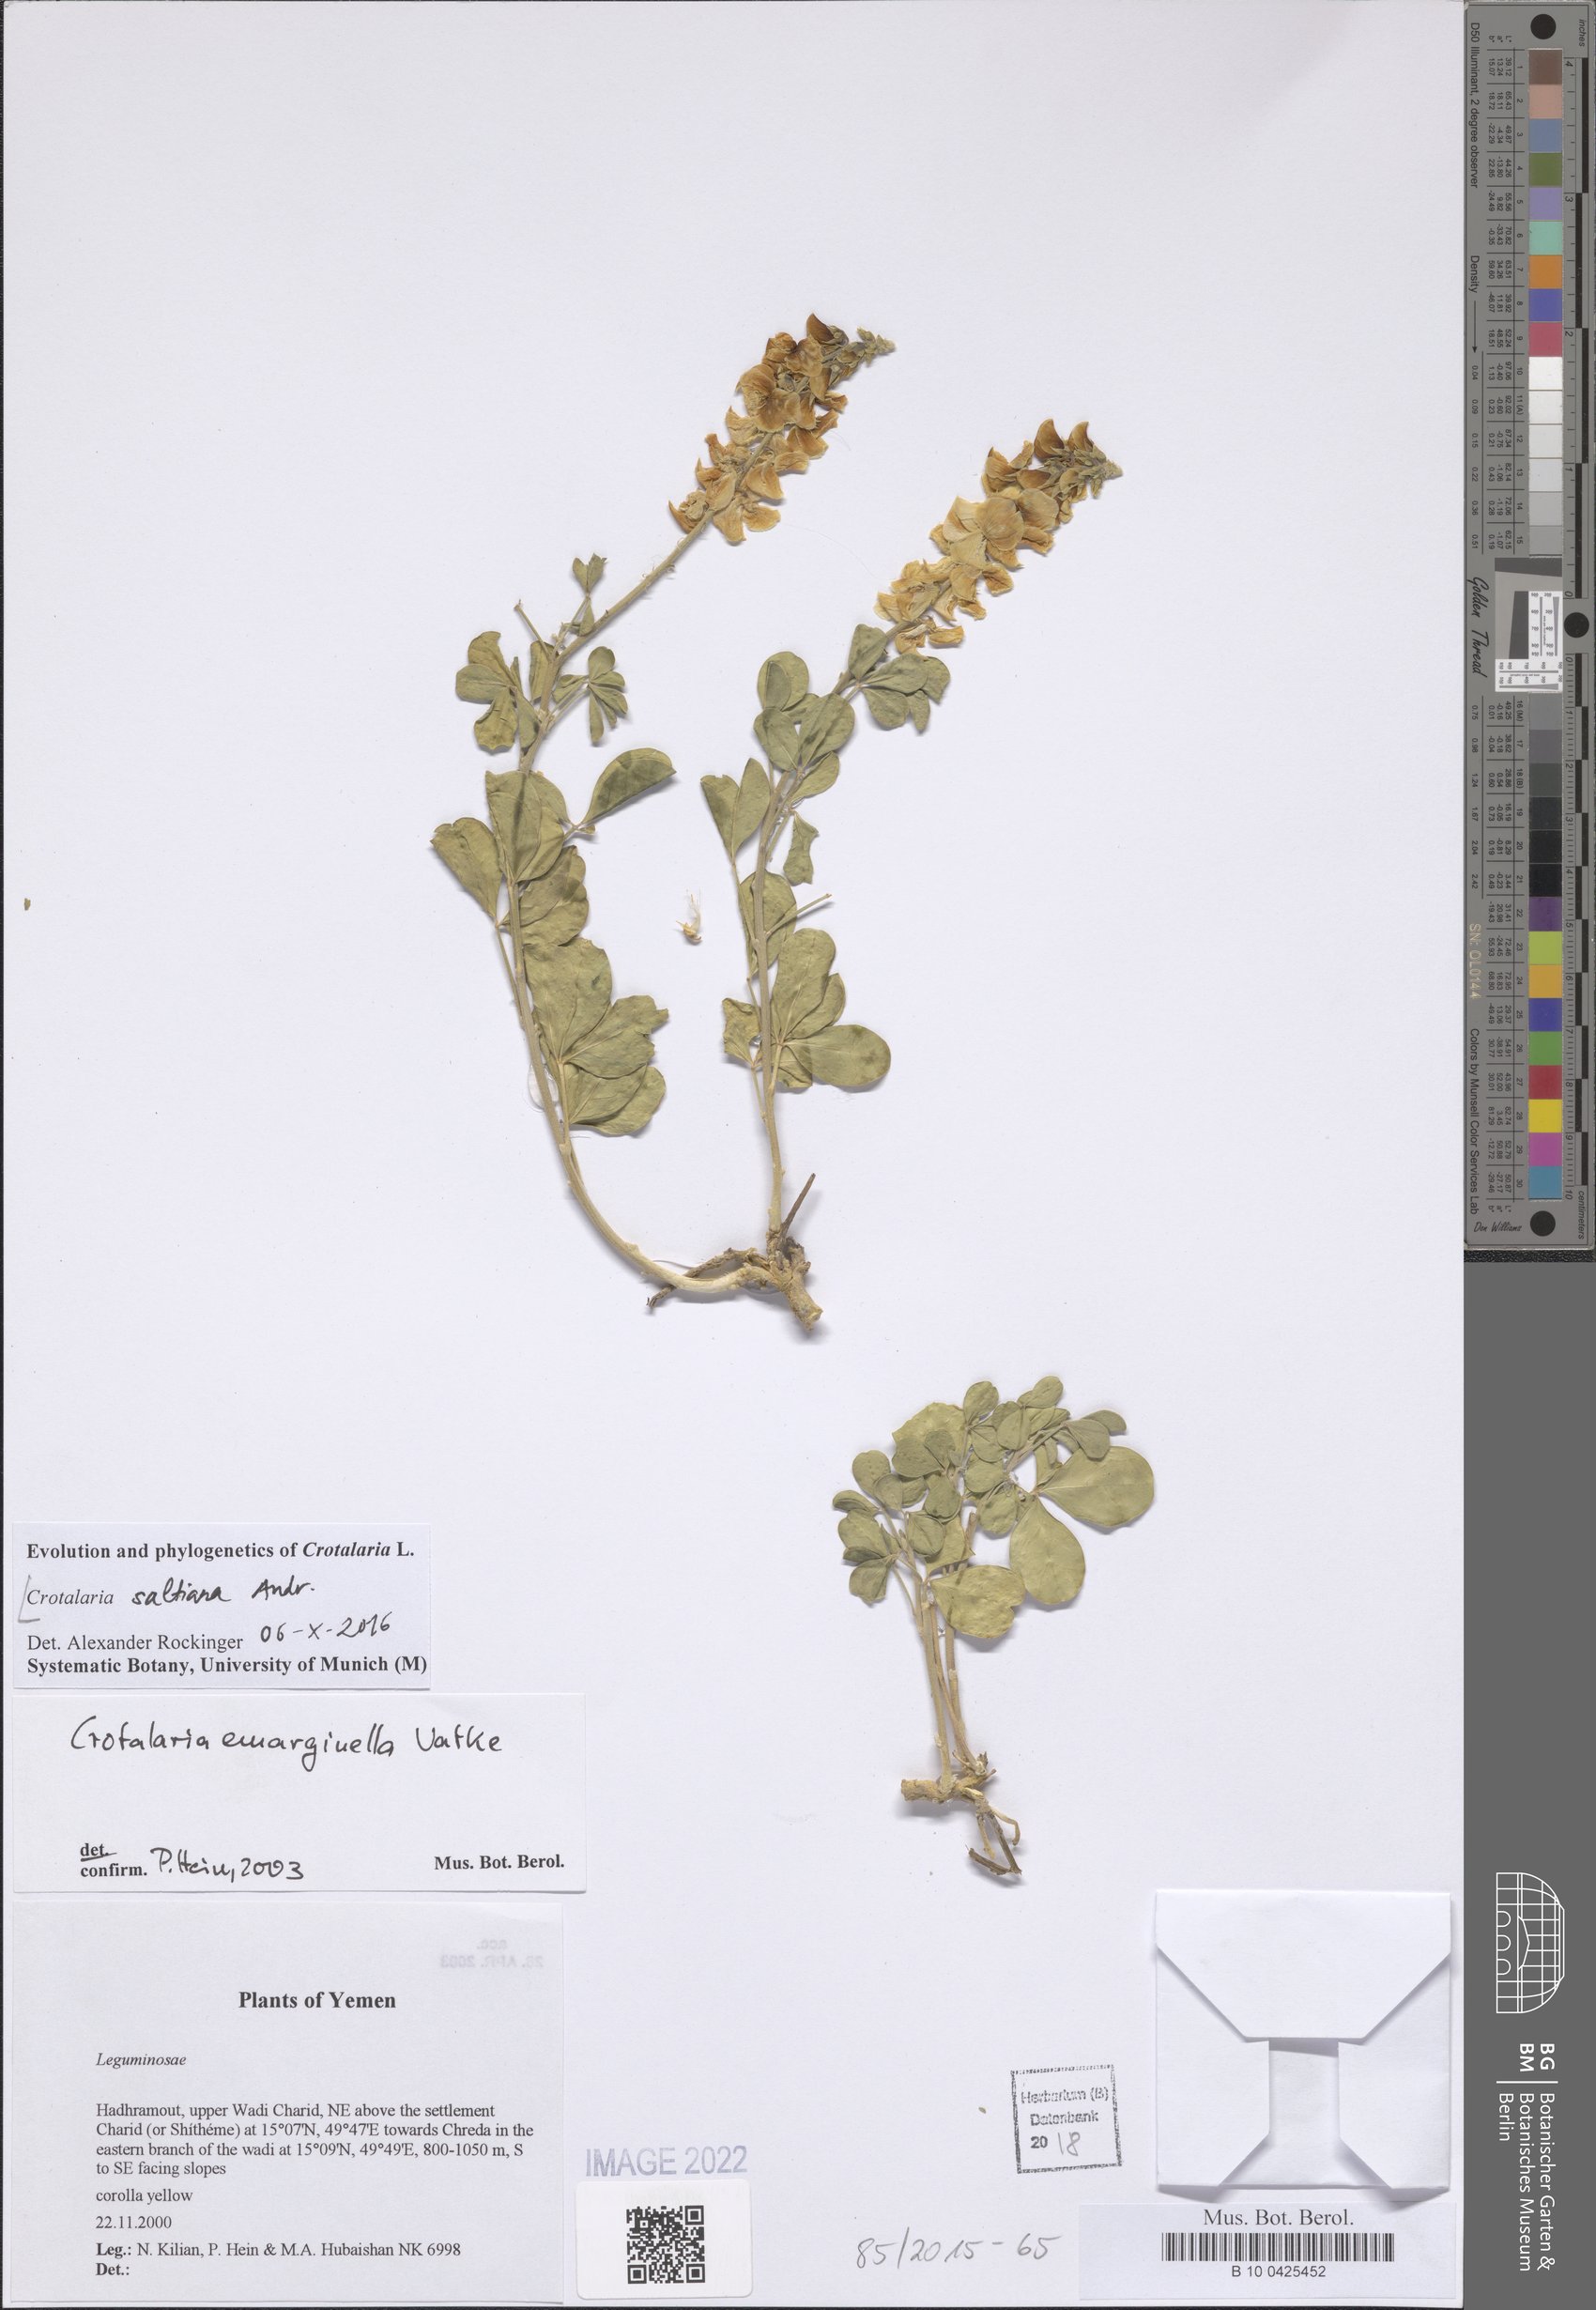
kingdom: Plantae
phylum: Tracheophyta
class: Magnoliopsida
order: Fabales
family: Fabaceae
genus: Crotalaria
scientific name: Crotalaria saltiana
